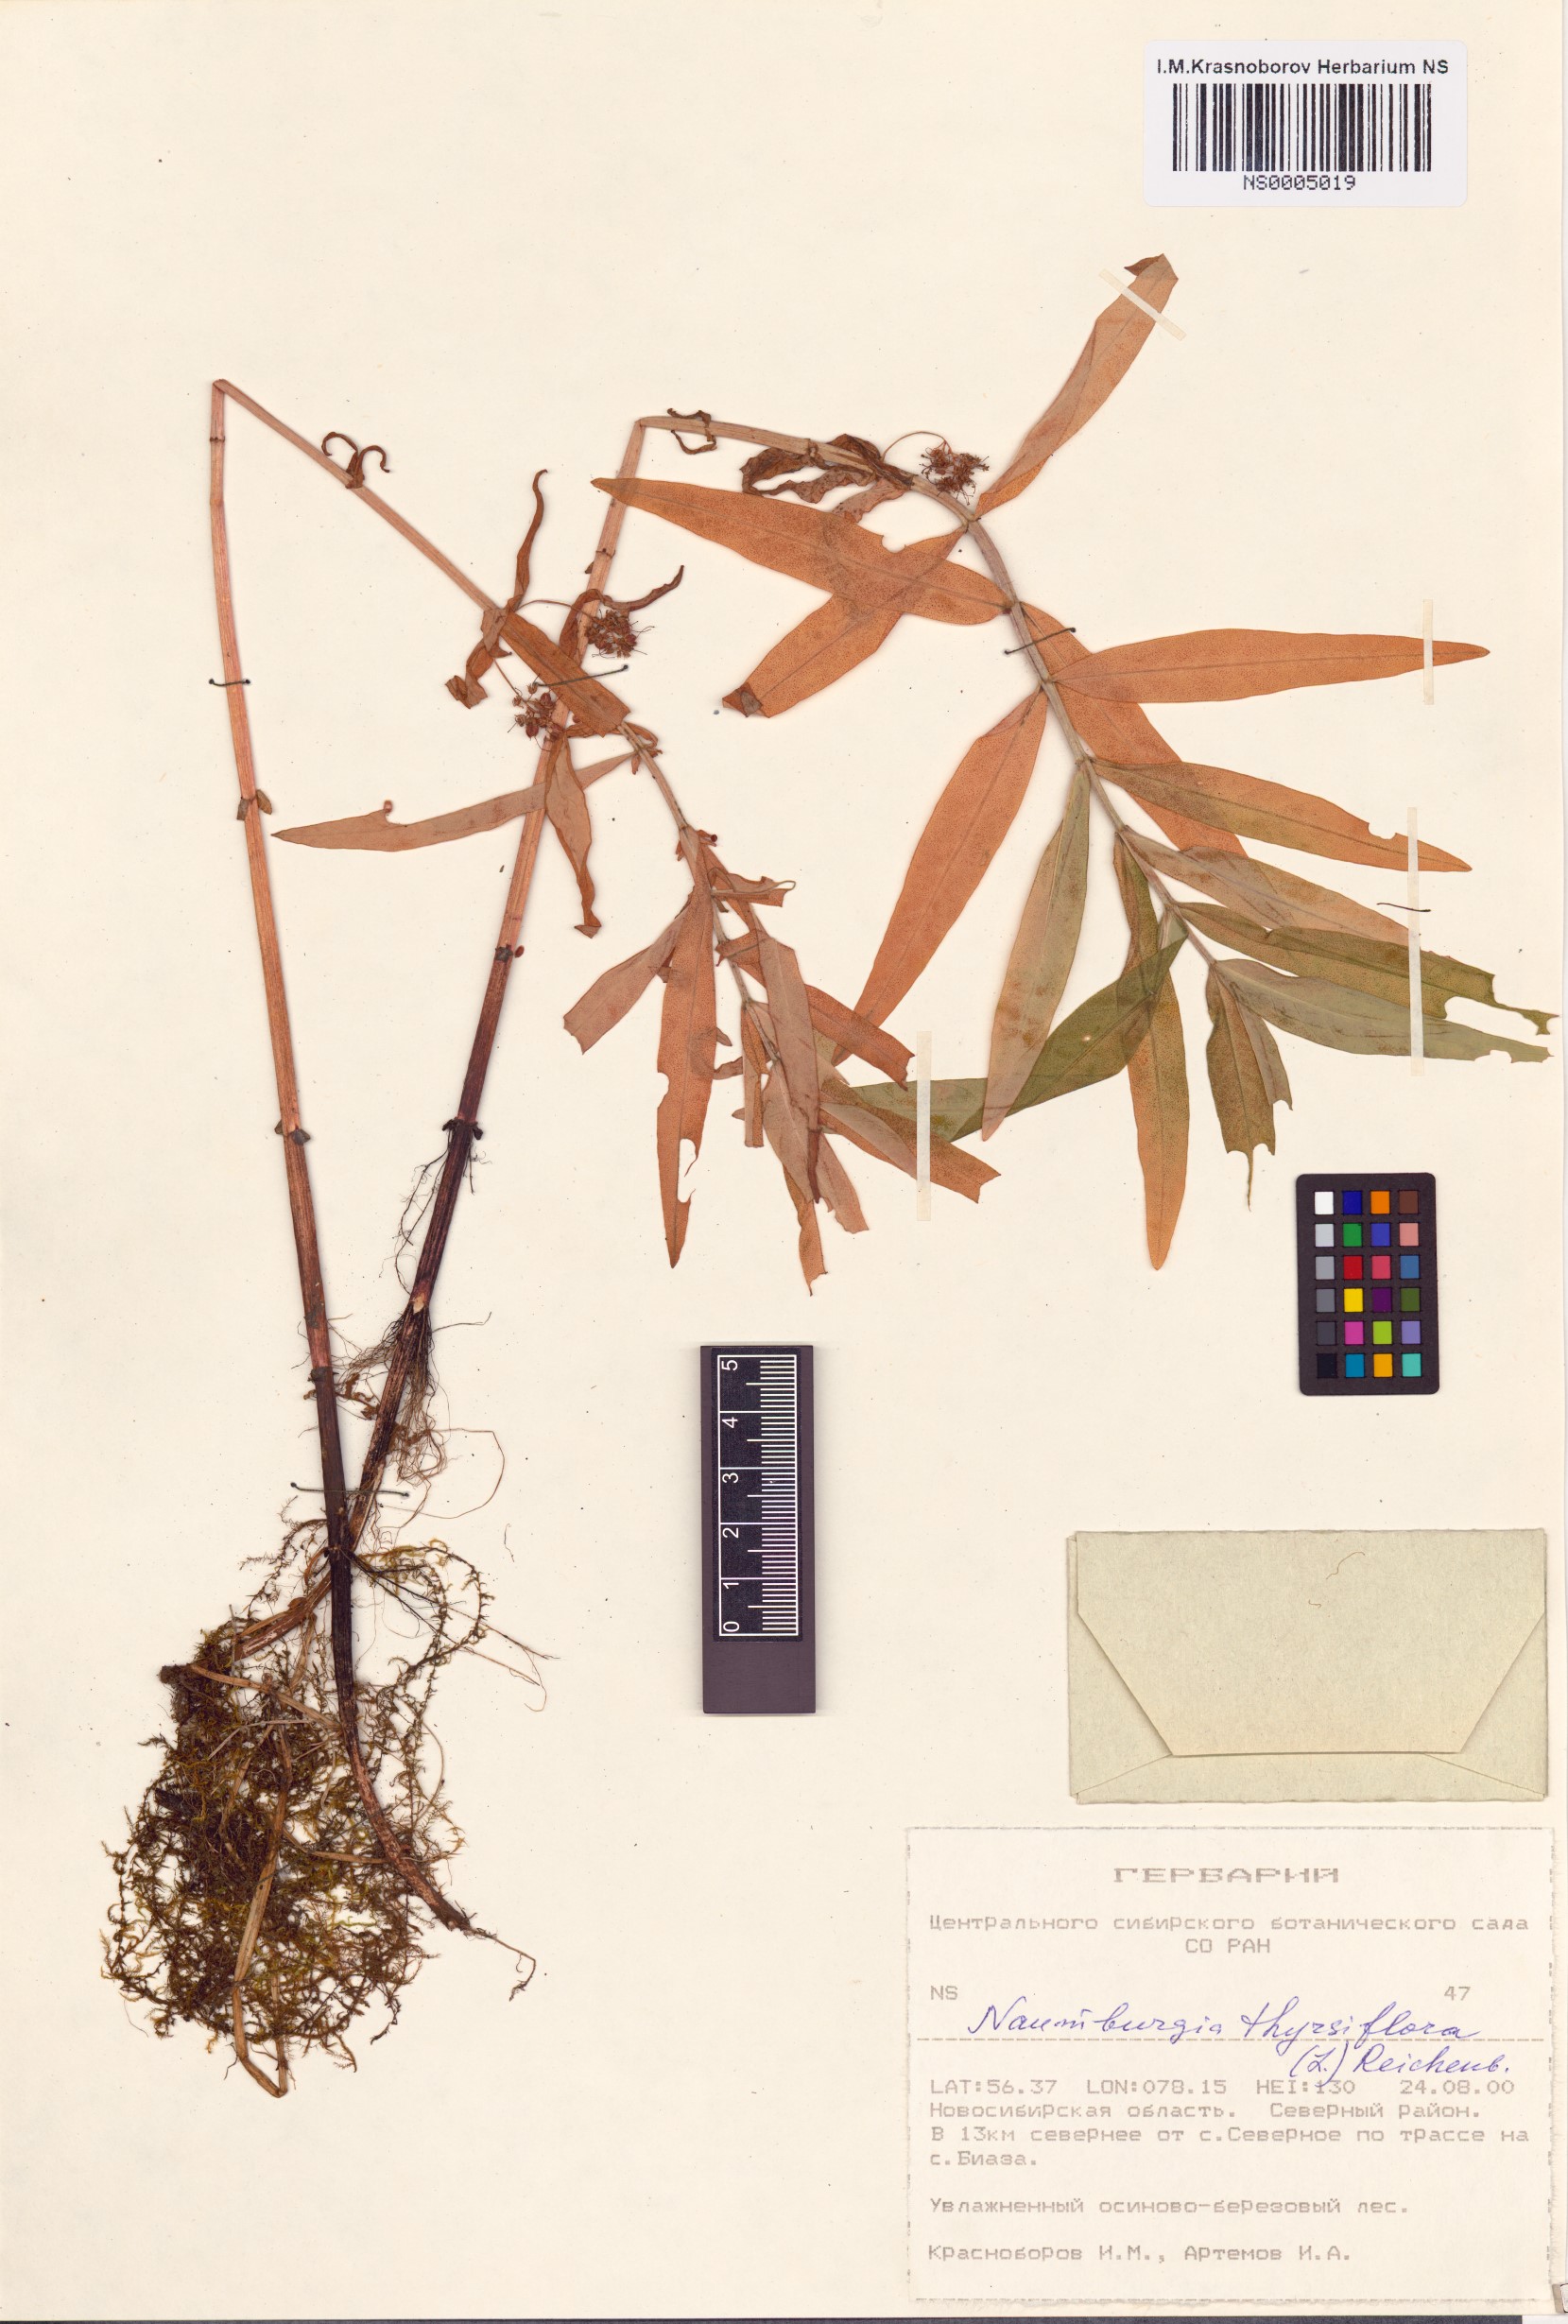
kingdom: Plantae
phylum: Tracheophyta
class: Magnoliopsida
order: Ericales
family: Primulaceae
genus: Lysimachia
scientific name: Lysimachia thyrsiflora
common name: Tufted loosestrife
